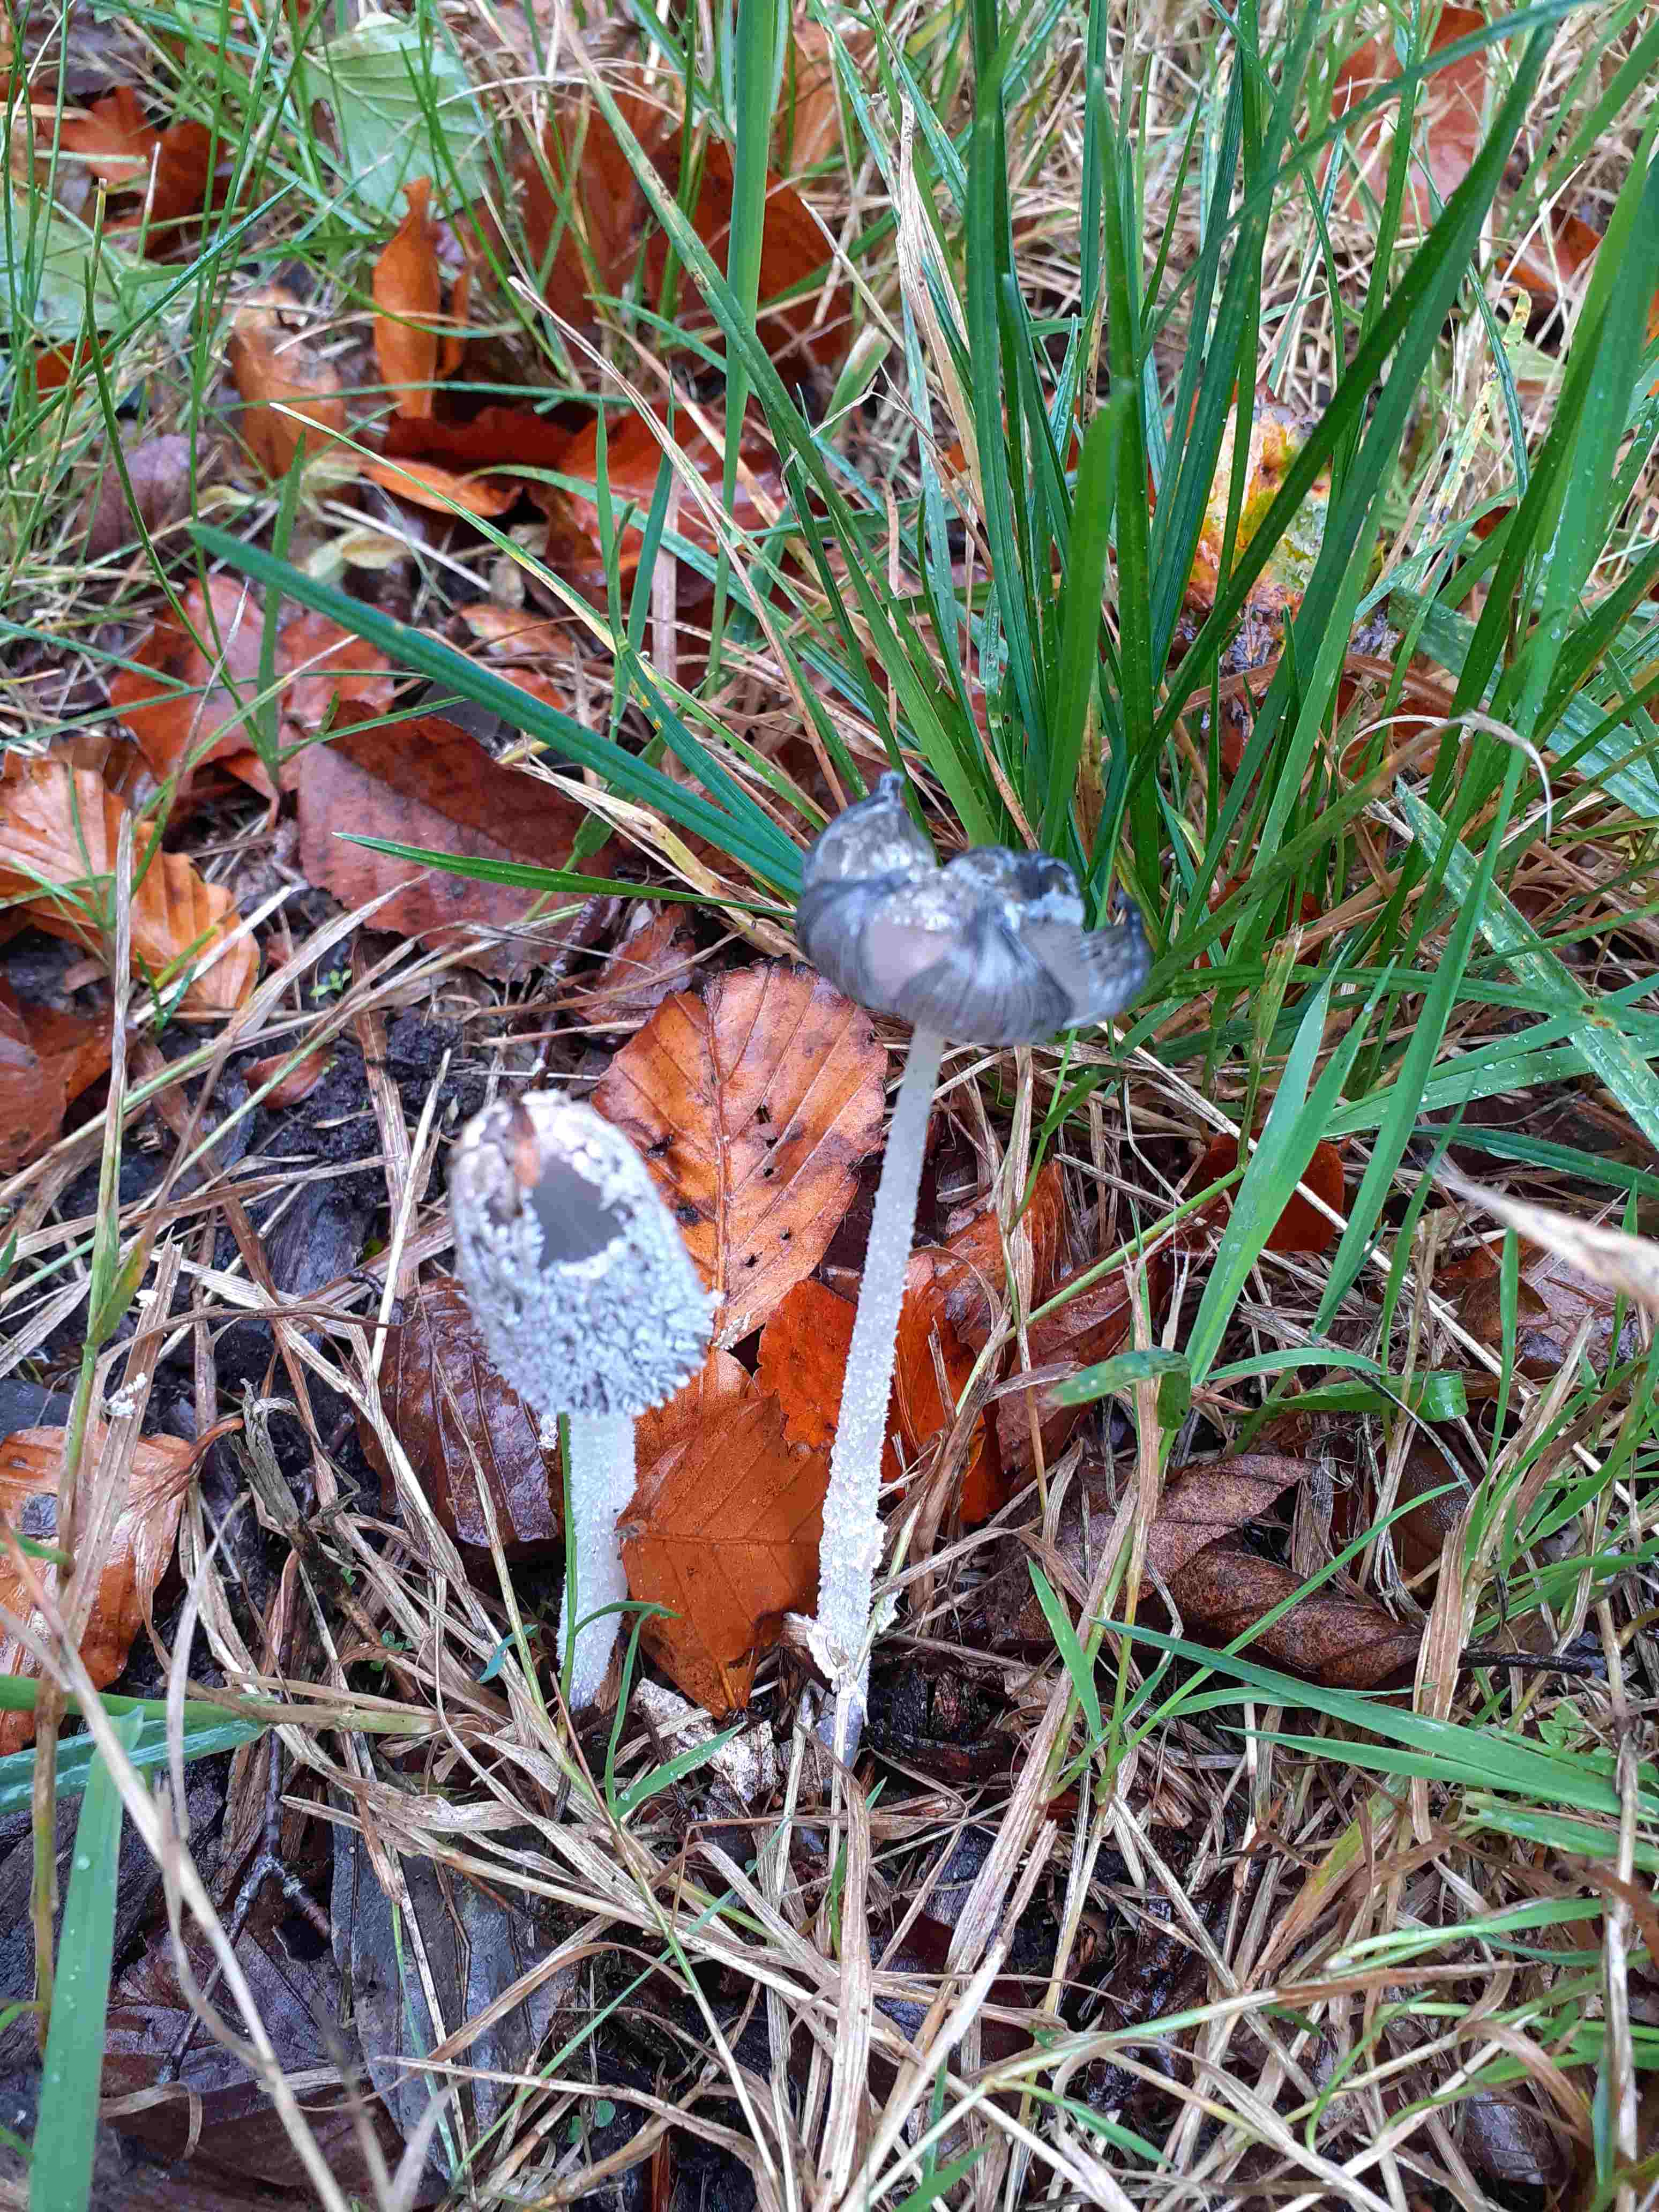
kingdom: Fungi
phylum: Basidiomycota
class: Agaricomycetes
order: Agaricales
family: Psathyrellaceae
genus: Coprinopsis
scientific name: Coprinopsis lagopus
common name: dunstokket blækhat
